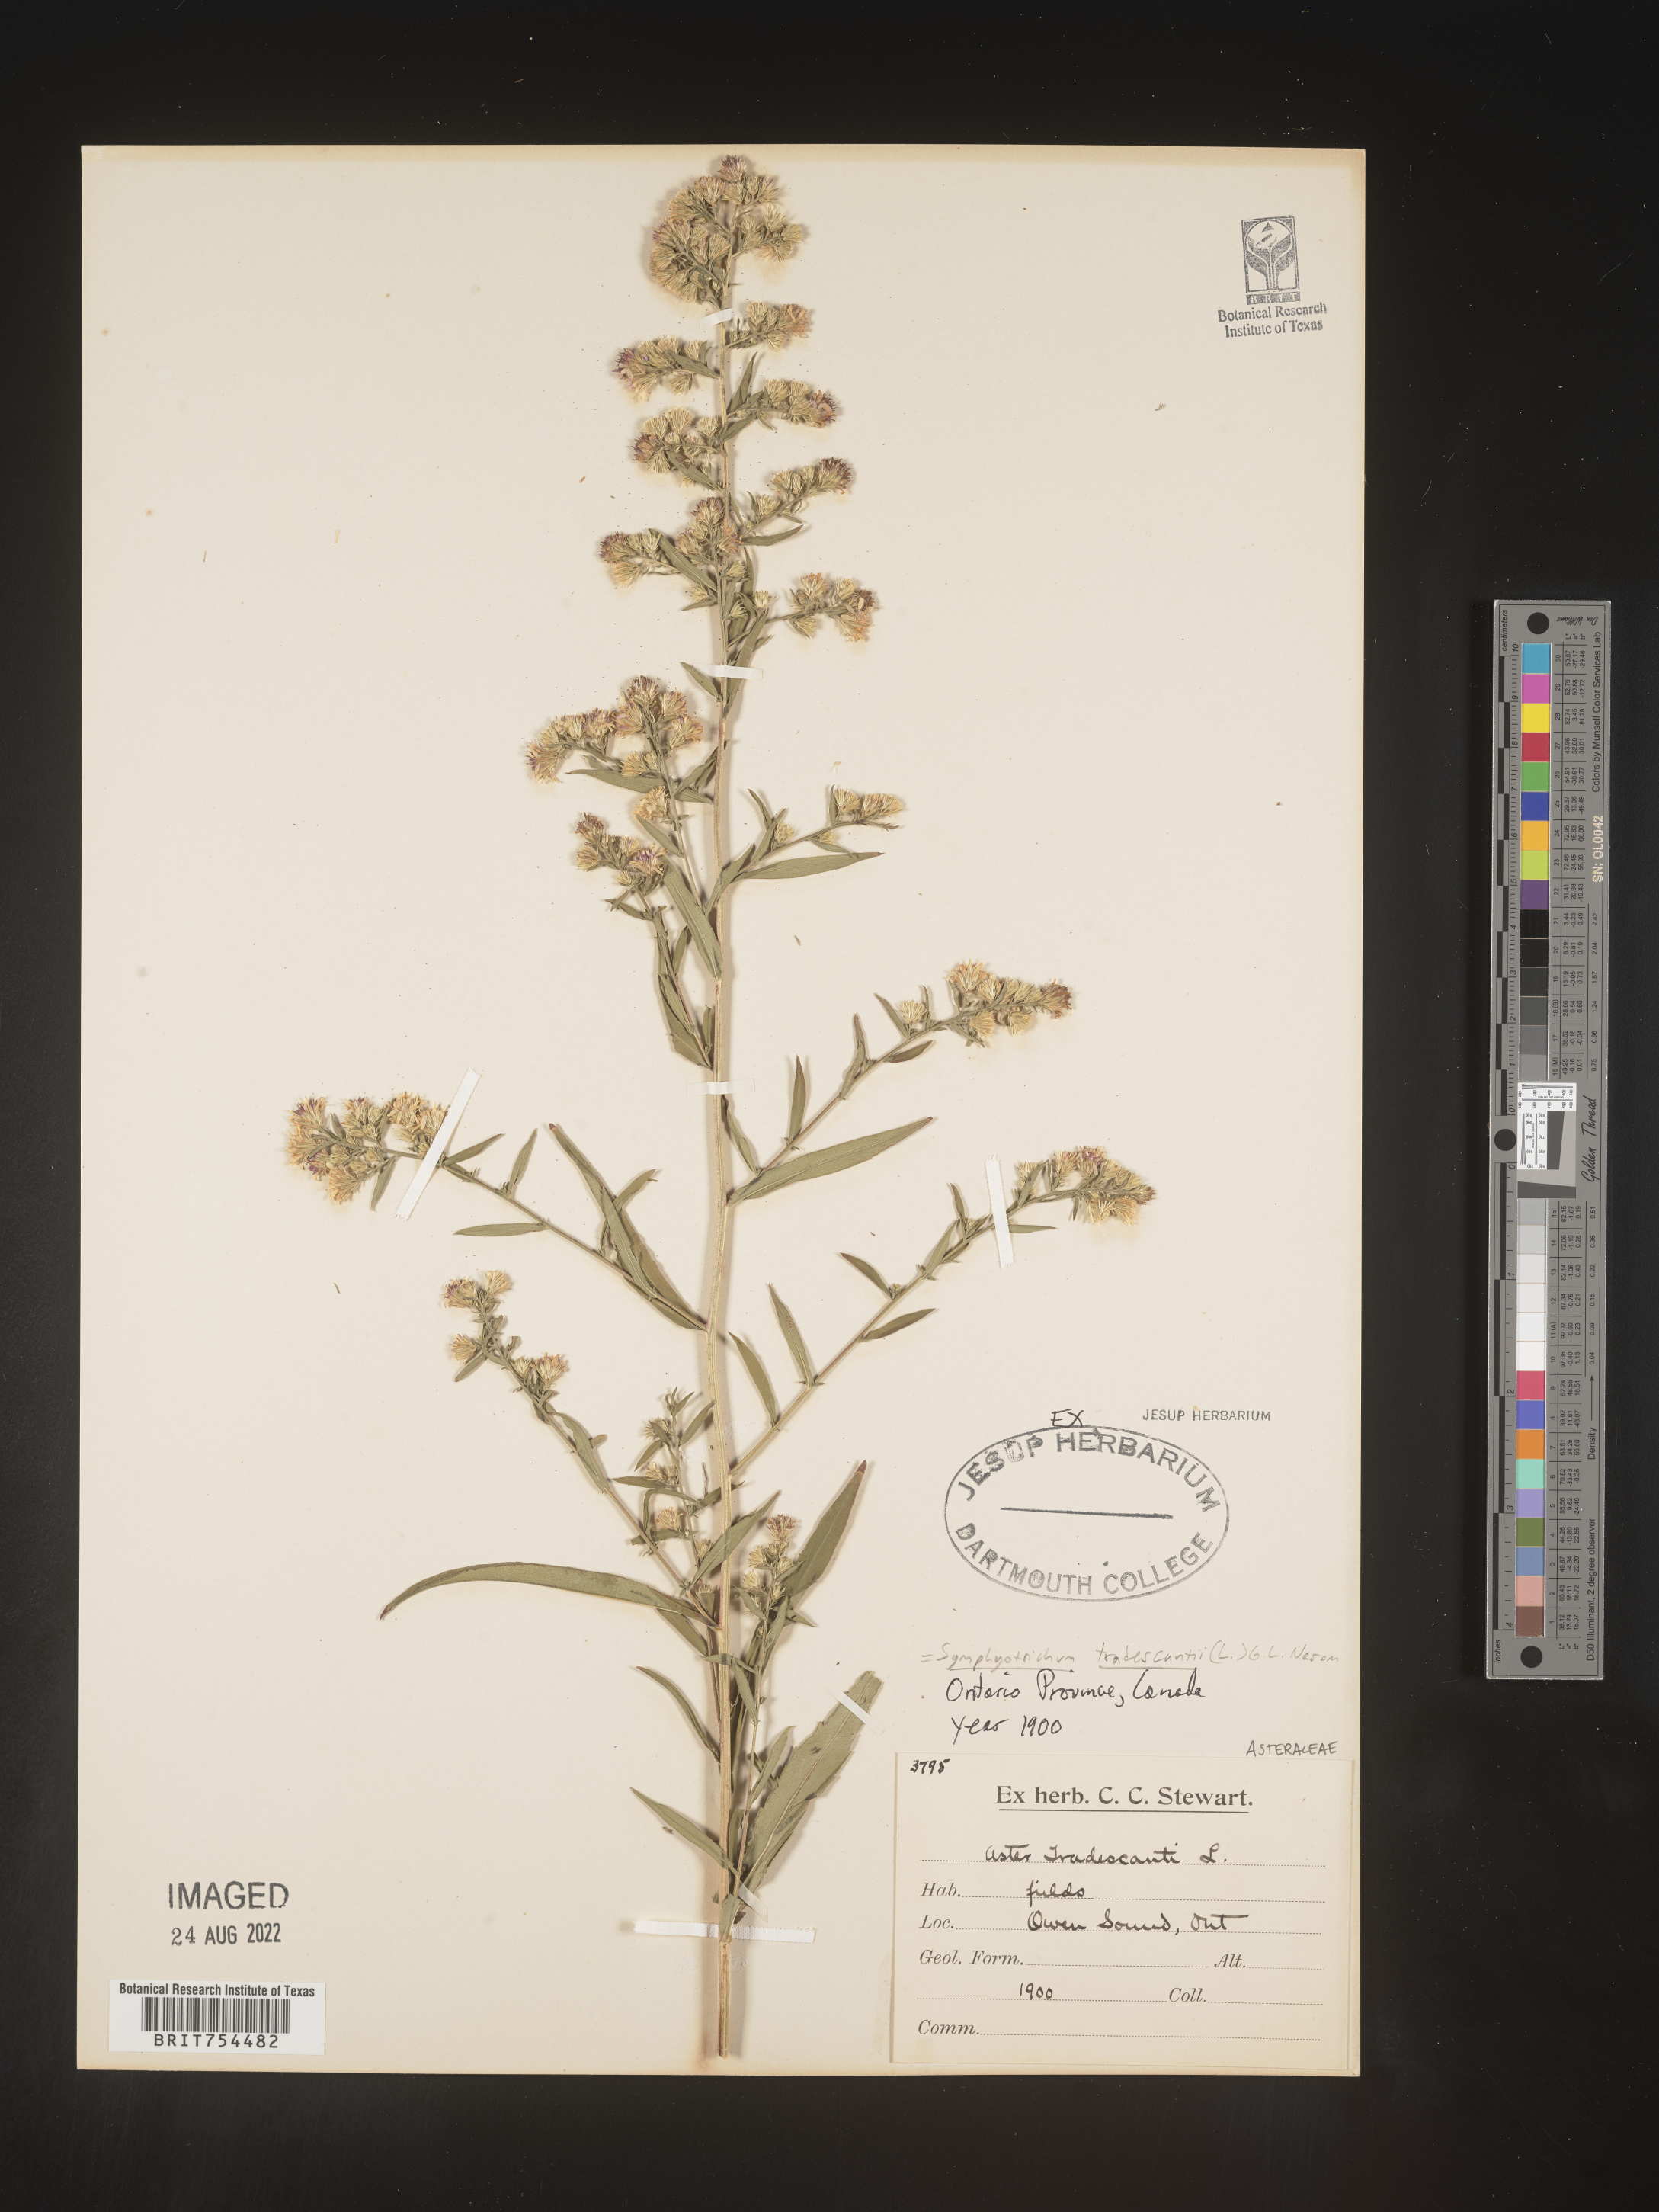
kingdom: Plantae
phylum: Tracheophyta
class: Magnoliopsida
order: Asterales
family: Asteraceae
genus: Symphyotrichum
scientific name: Symphyotrichum tradescantii
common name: Shore aster
